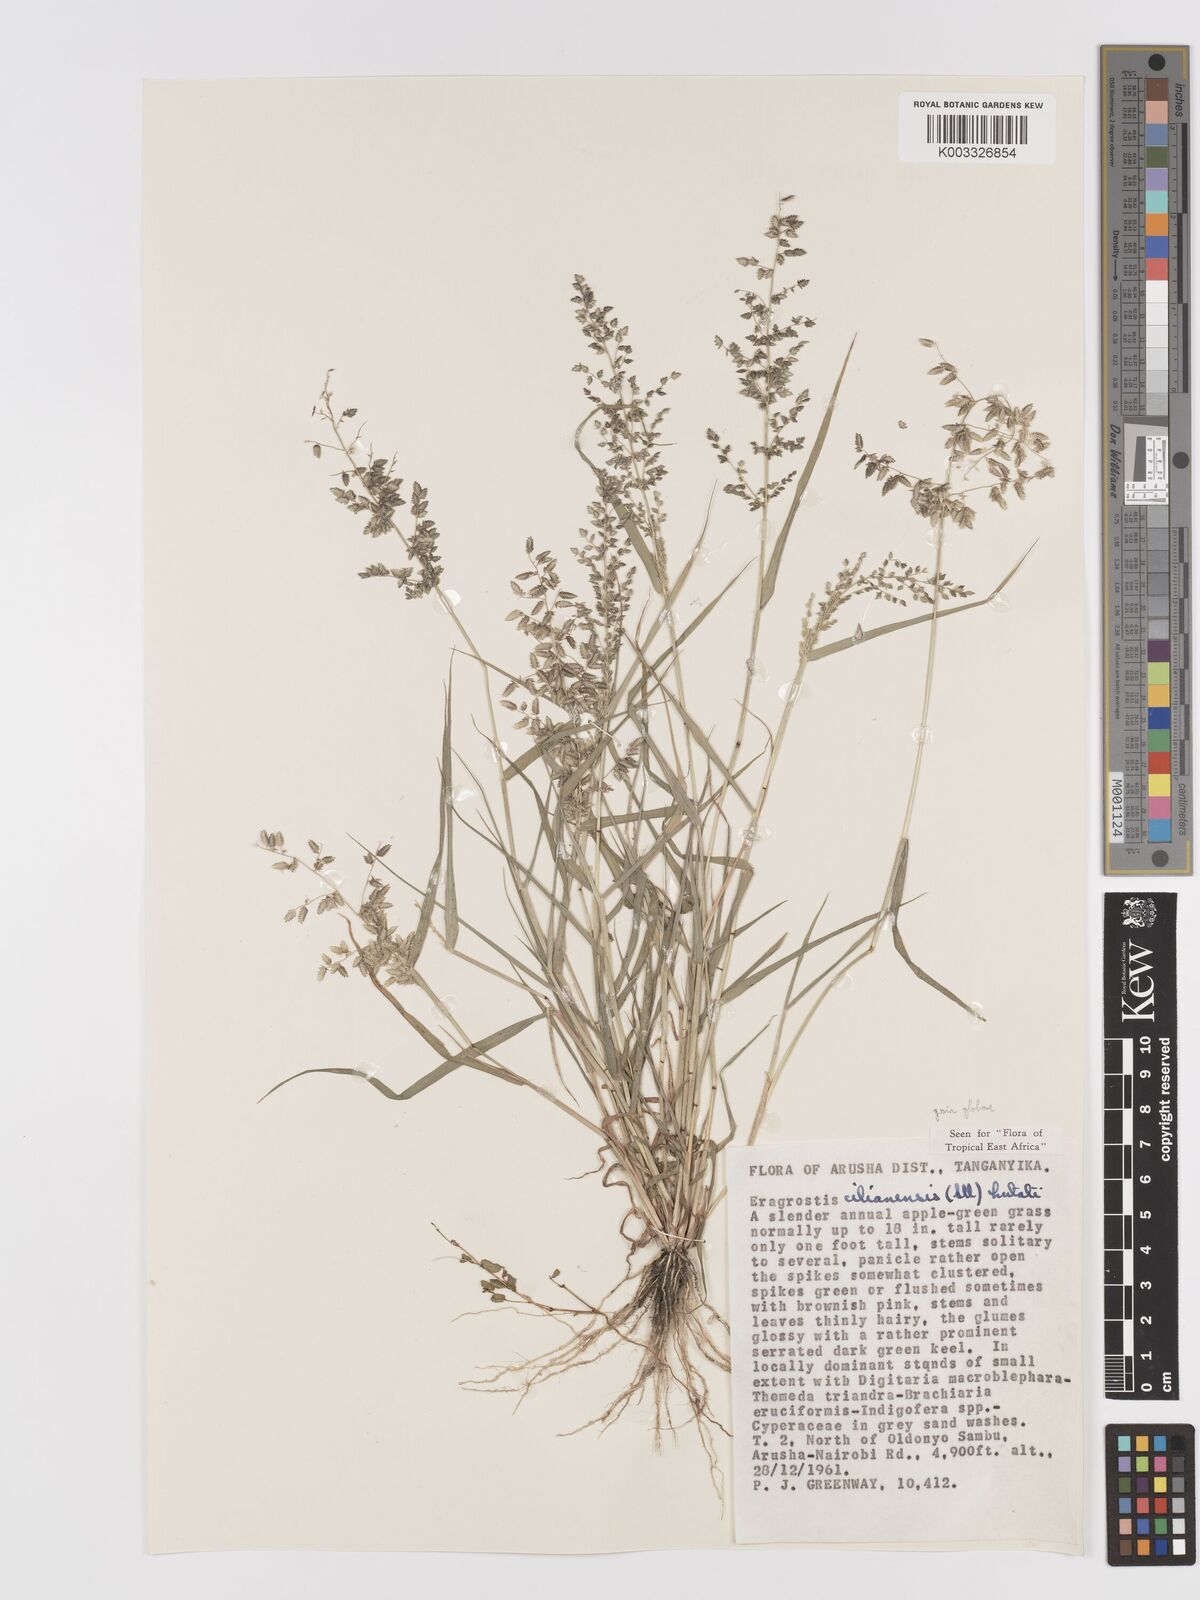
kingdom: Plantae
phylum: Tracheophyta
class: Liliopsida
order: Poales
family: Poaceae
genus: Eragrostis
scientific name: Eragrostis cilianensis
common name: Stinkgrass
